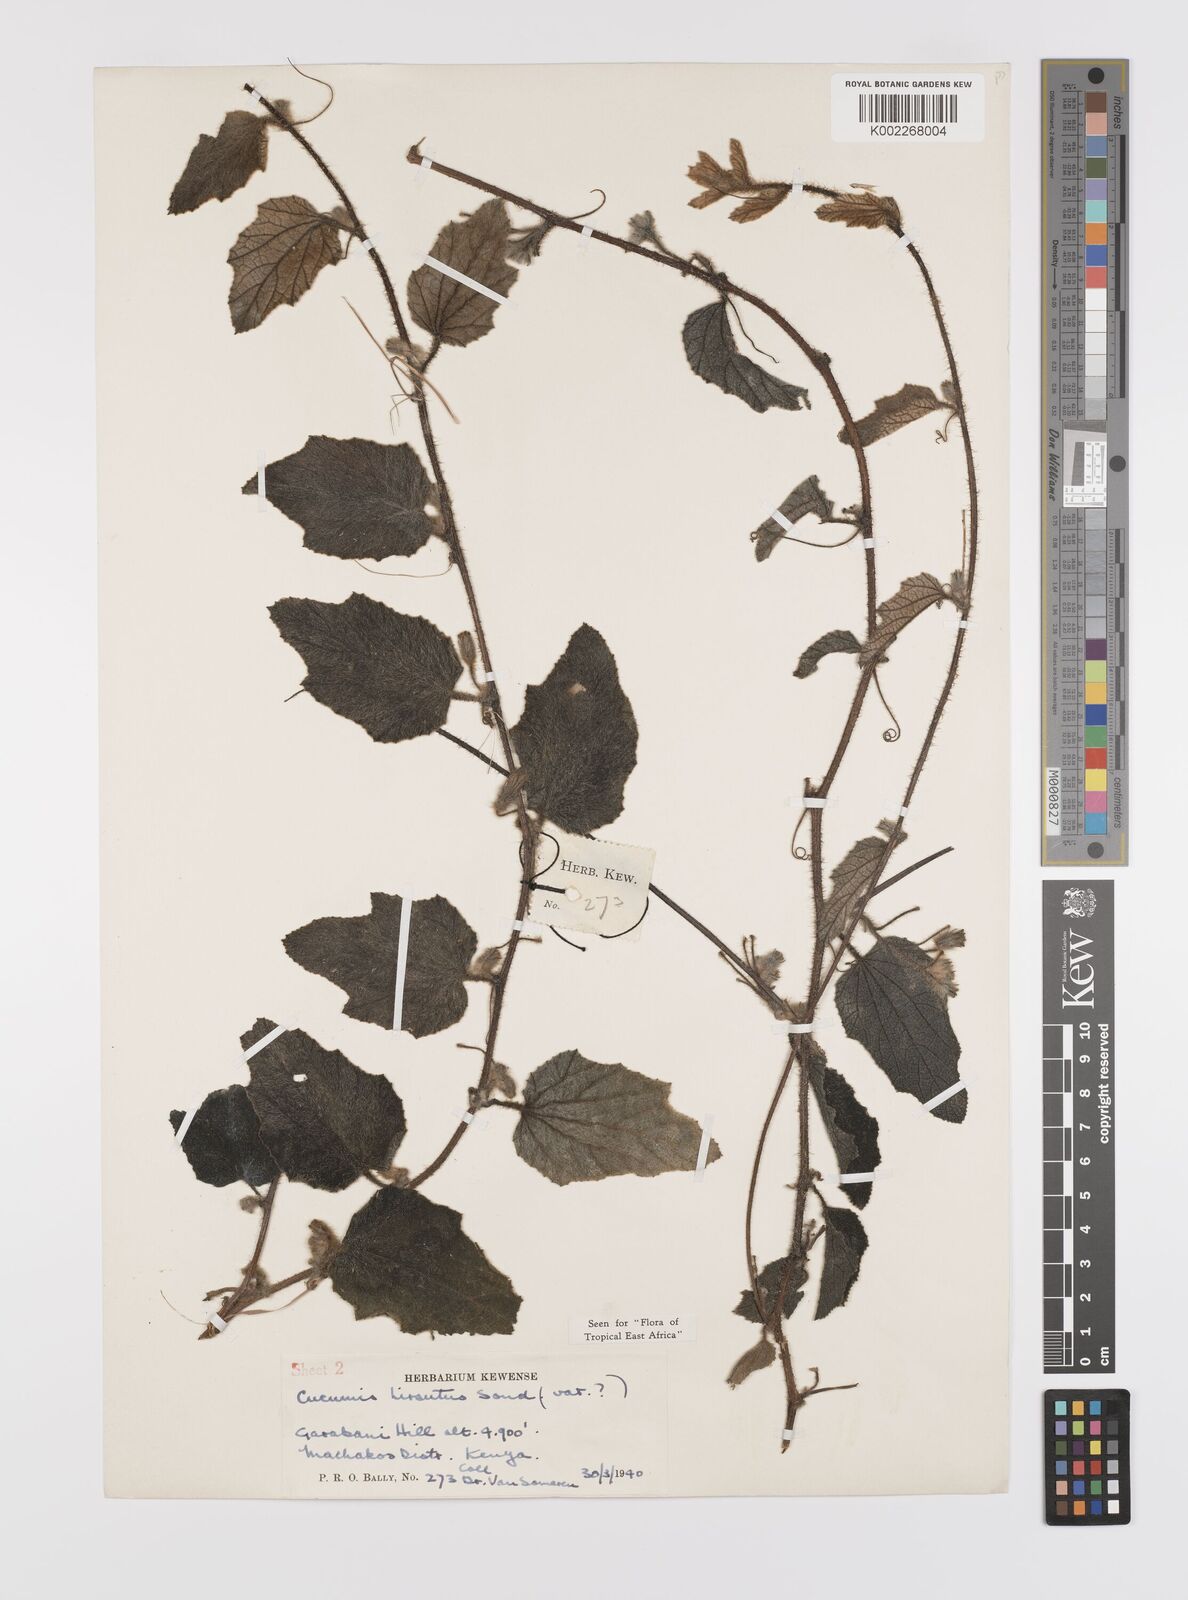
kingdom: Plantae
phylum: Tracheophyta
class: Magnoliopsida
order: Cucurbitales
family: Cucurbitaceae
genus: Cucumis
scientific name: Cucumis hirsutus
